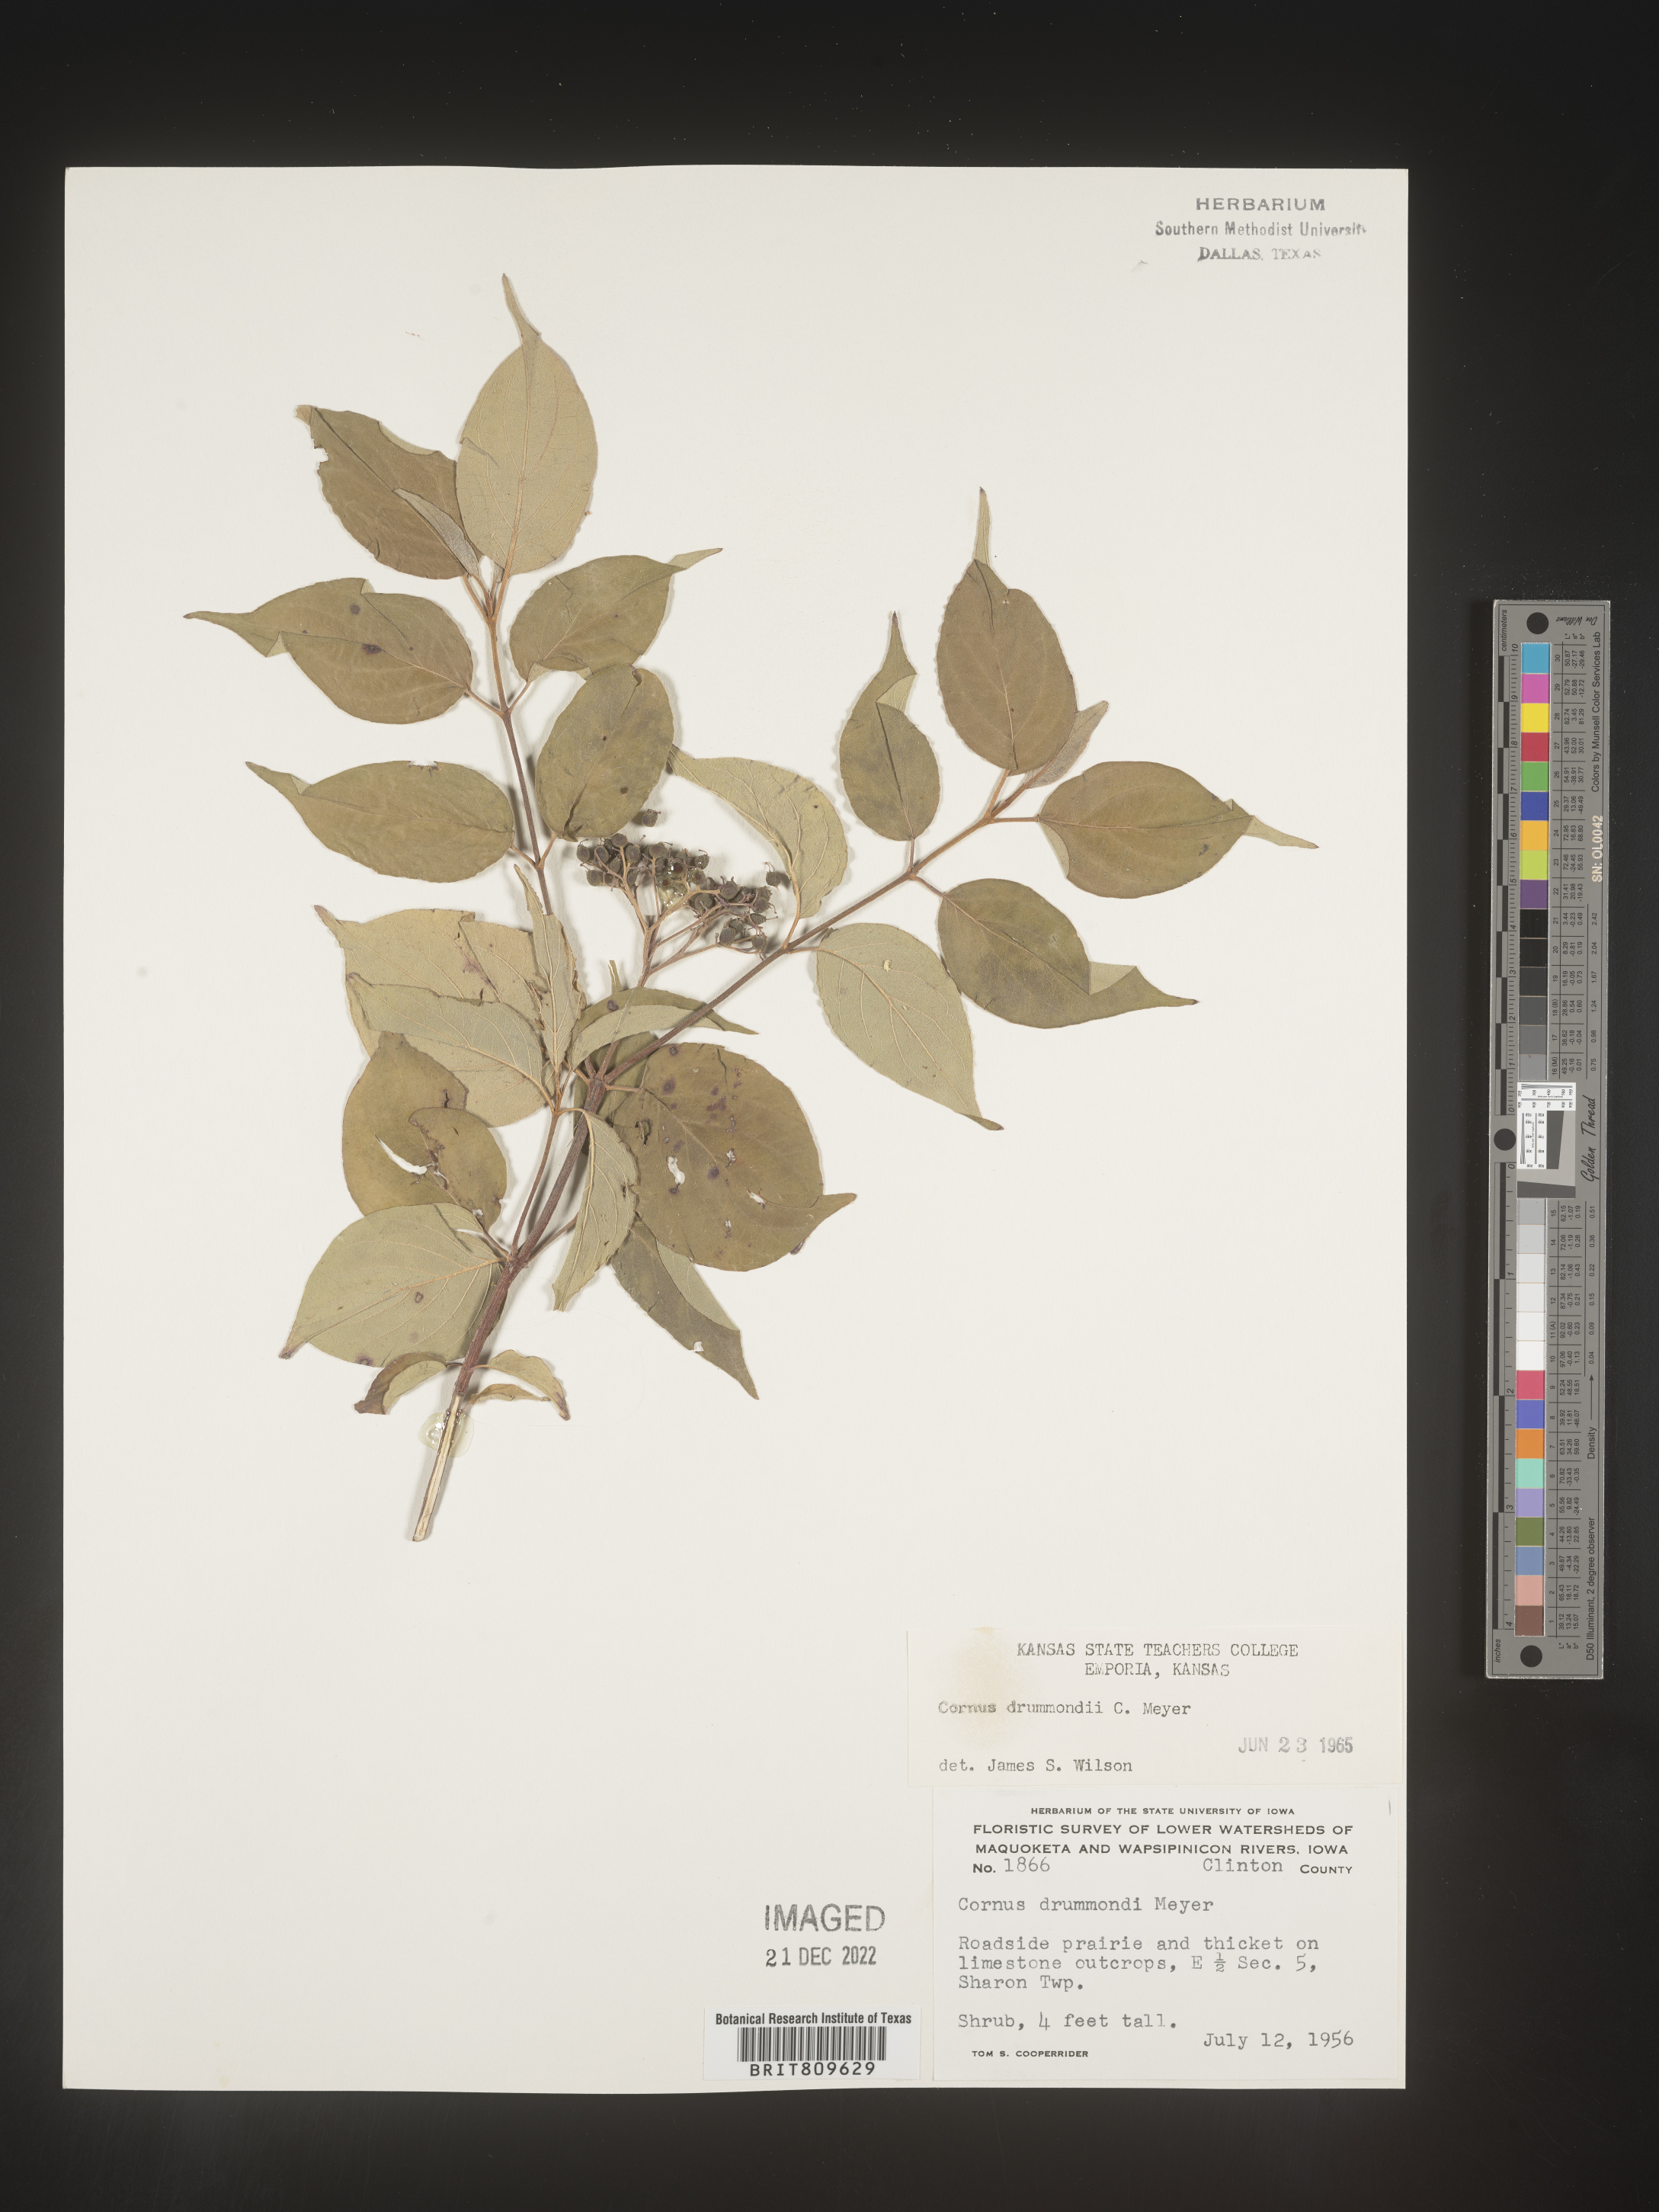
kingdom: Plantae
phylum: Tracheophyta
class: Magnoliopsida
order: Cornales
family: Cornaceae
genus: Cornus
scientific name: Cornus drummondii
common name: Rough-leaf dogwood
